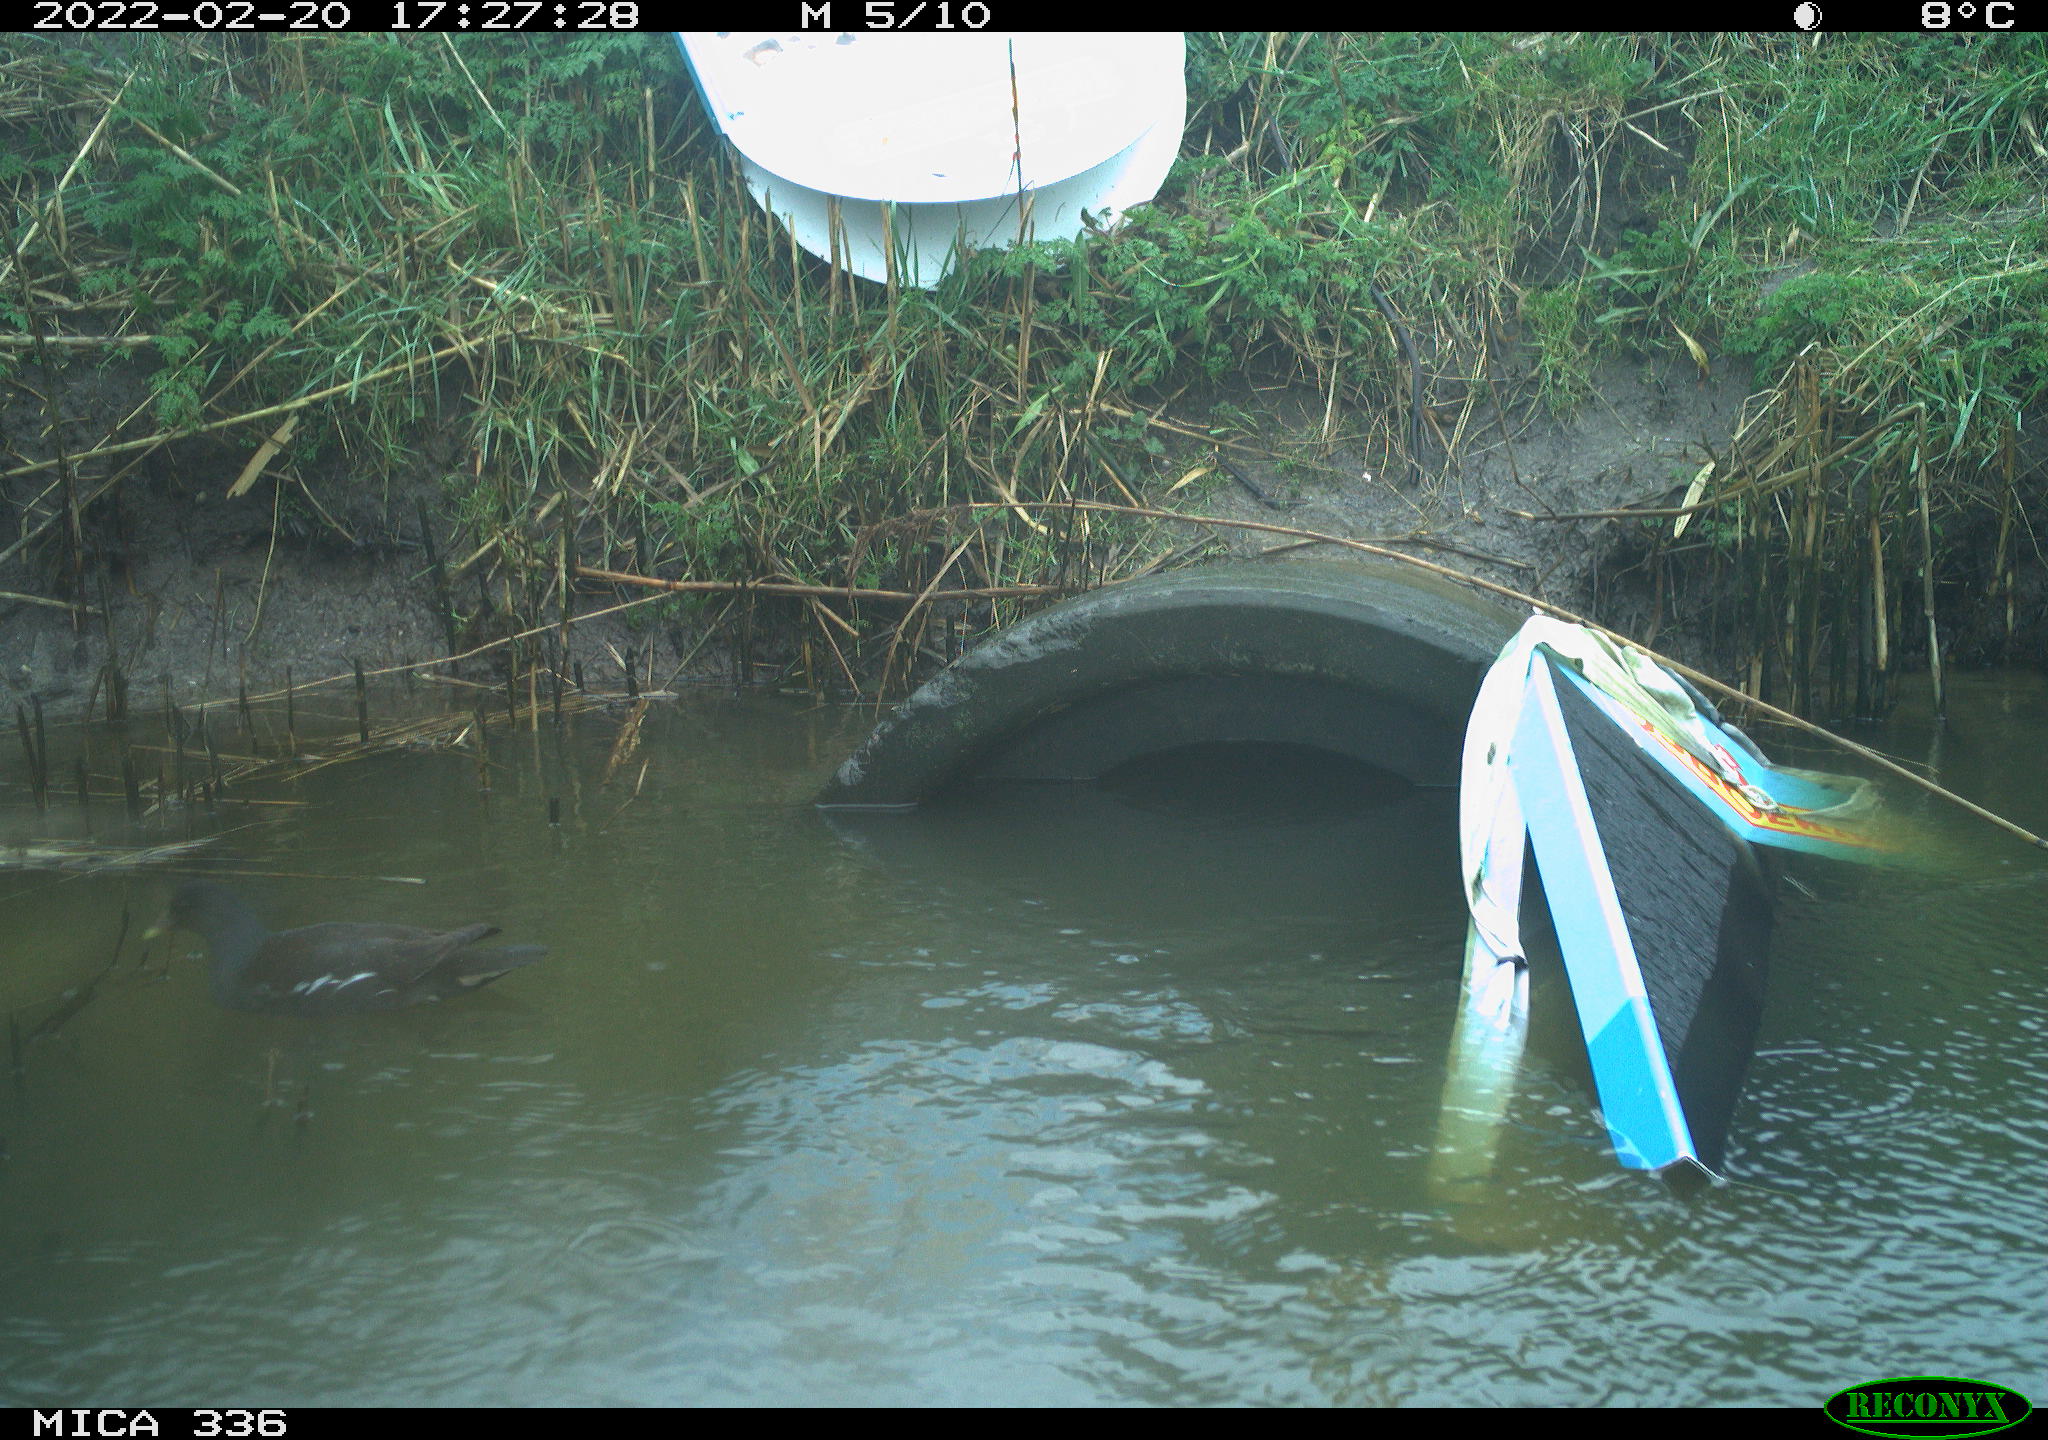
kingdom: Animalia
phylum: Chordata
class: Aves
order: Gruiformes
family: Rallidae
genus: Gallinula
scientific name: Gallinula chloropus
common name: Common moorhen
